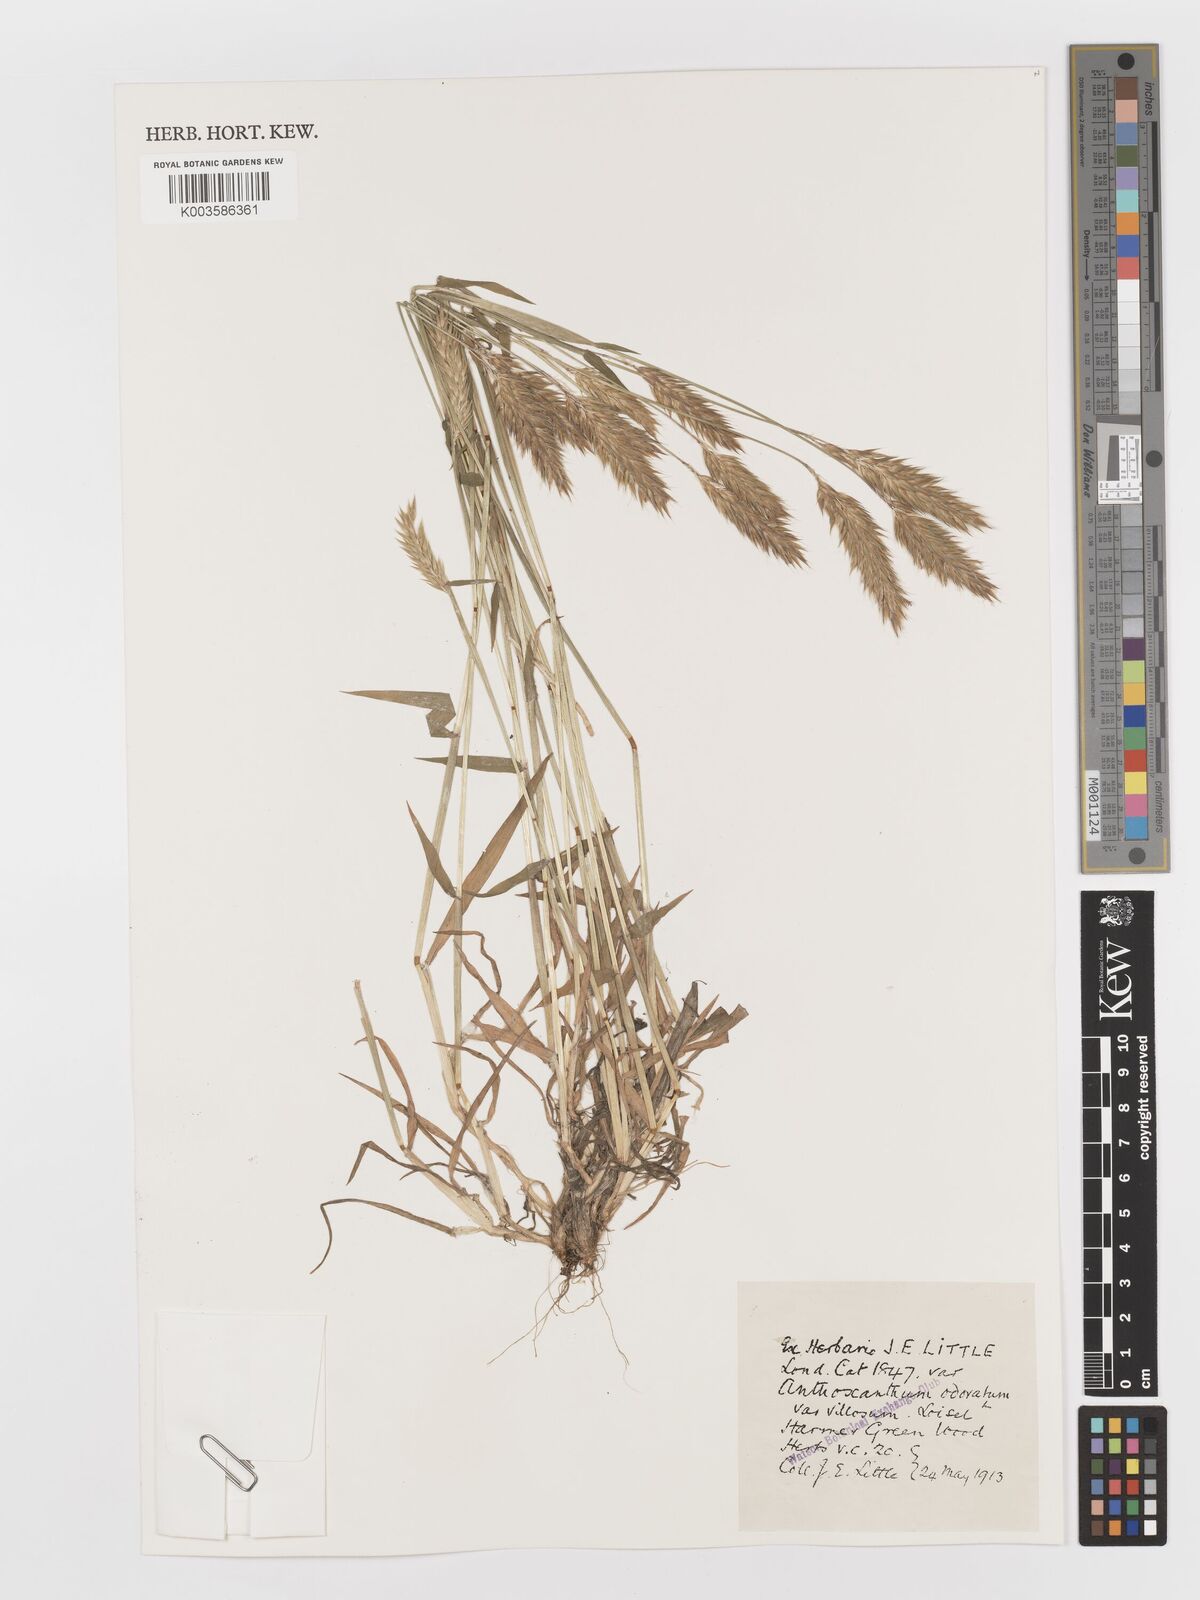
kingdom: Plantae
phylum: Tracheophyta
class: Liliopsida
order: Poales
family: Poaceae
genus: Anthoxanthum
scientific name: Anthoxanthum odoratum
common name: Sweet vernalgrass
